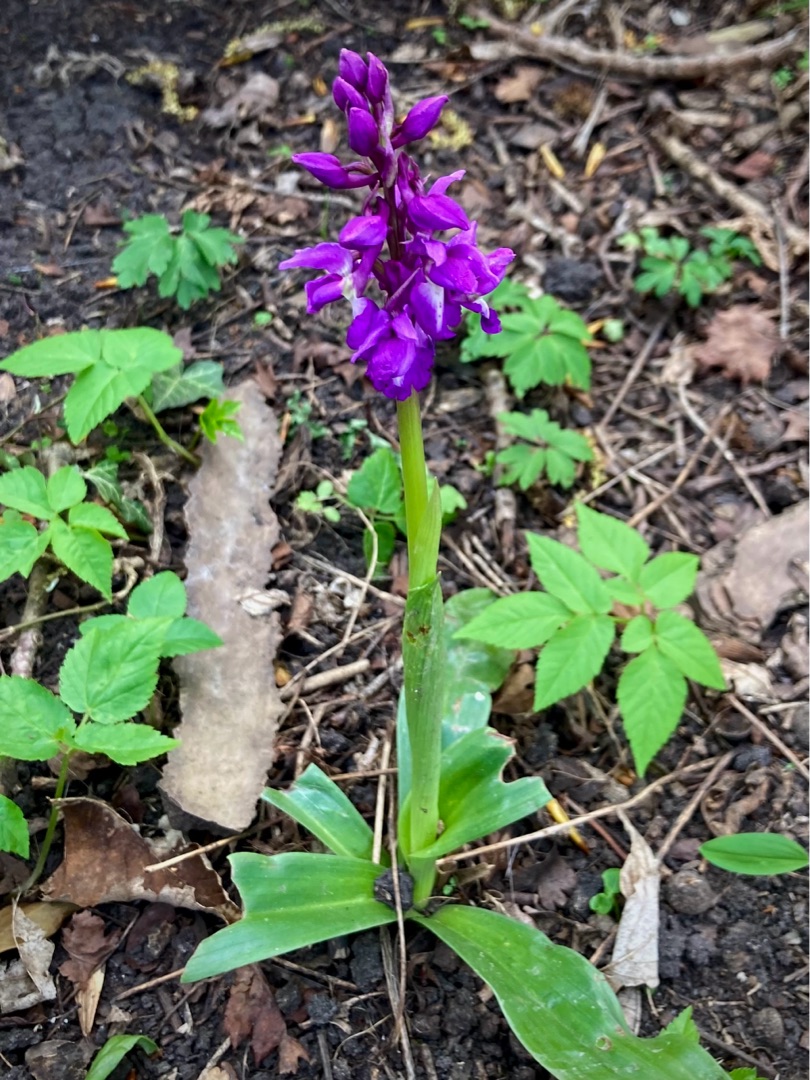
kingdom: Plantae
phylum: Tracheophyta
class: Liliopsida
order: Asparagales
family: Orchidaceae
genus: Orchis
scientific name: Orchis mascula
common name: Tyndakset gøgeurt
